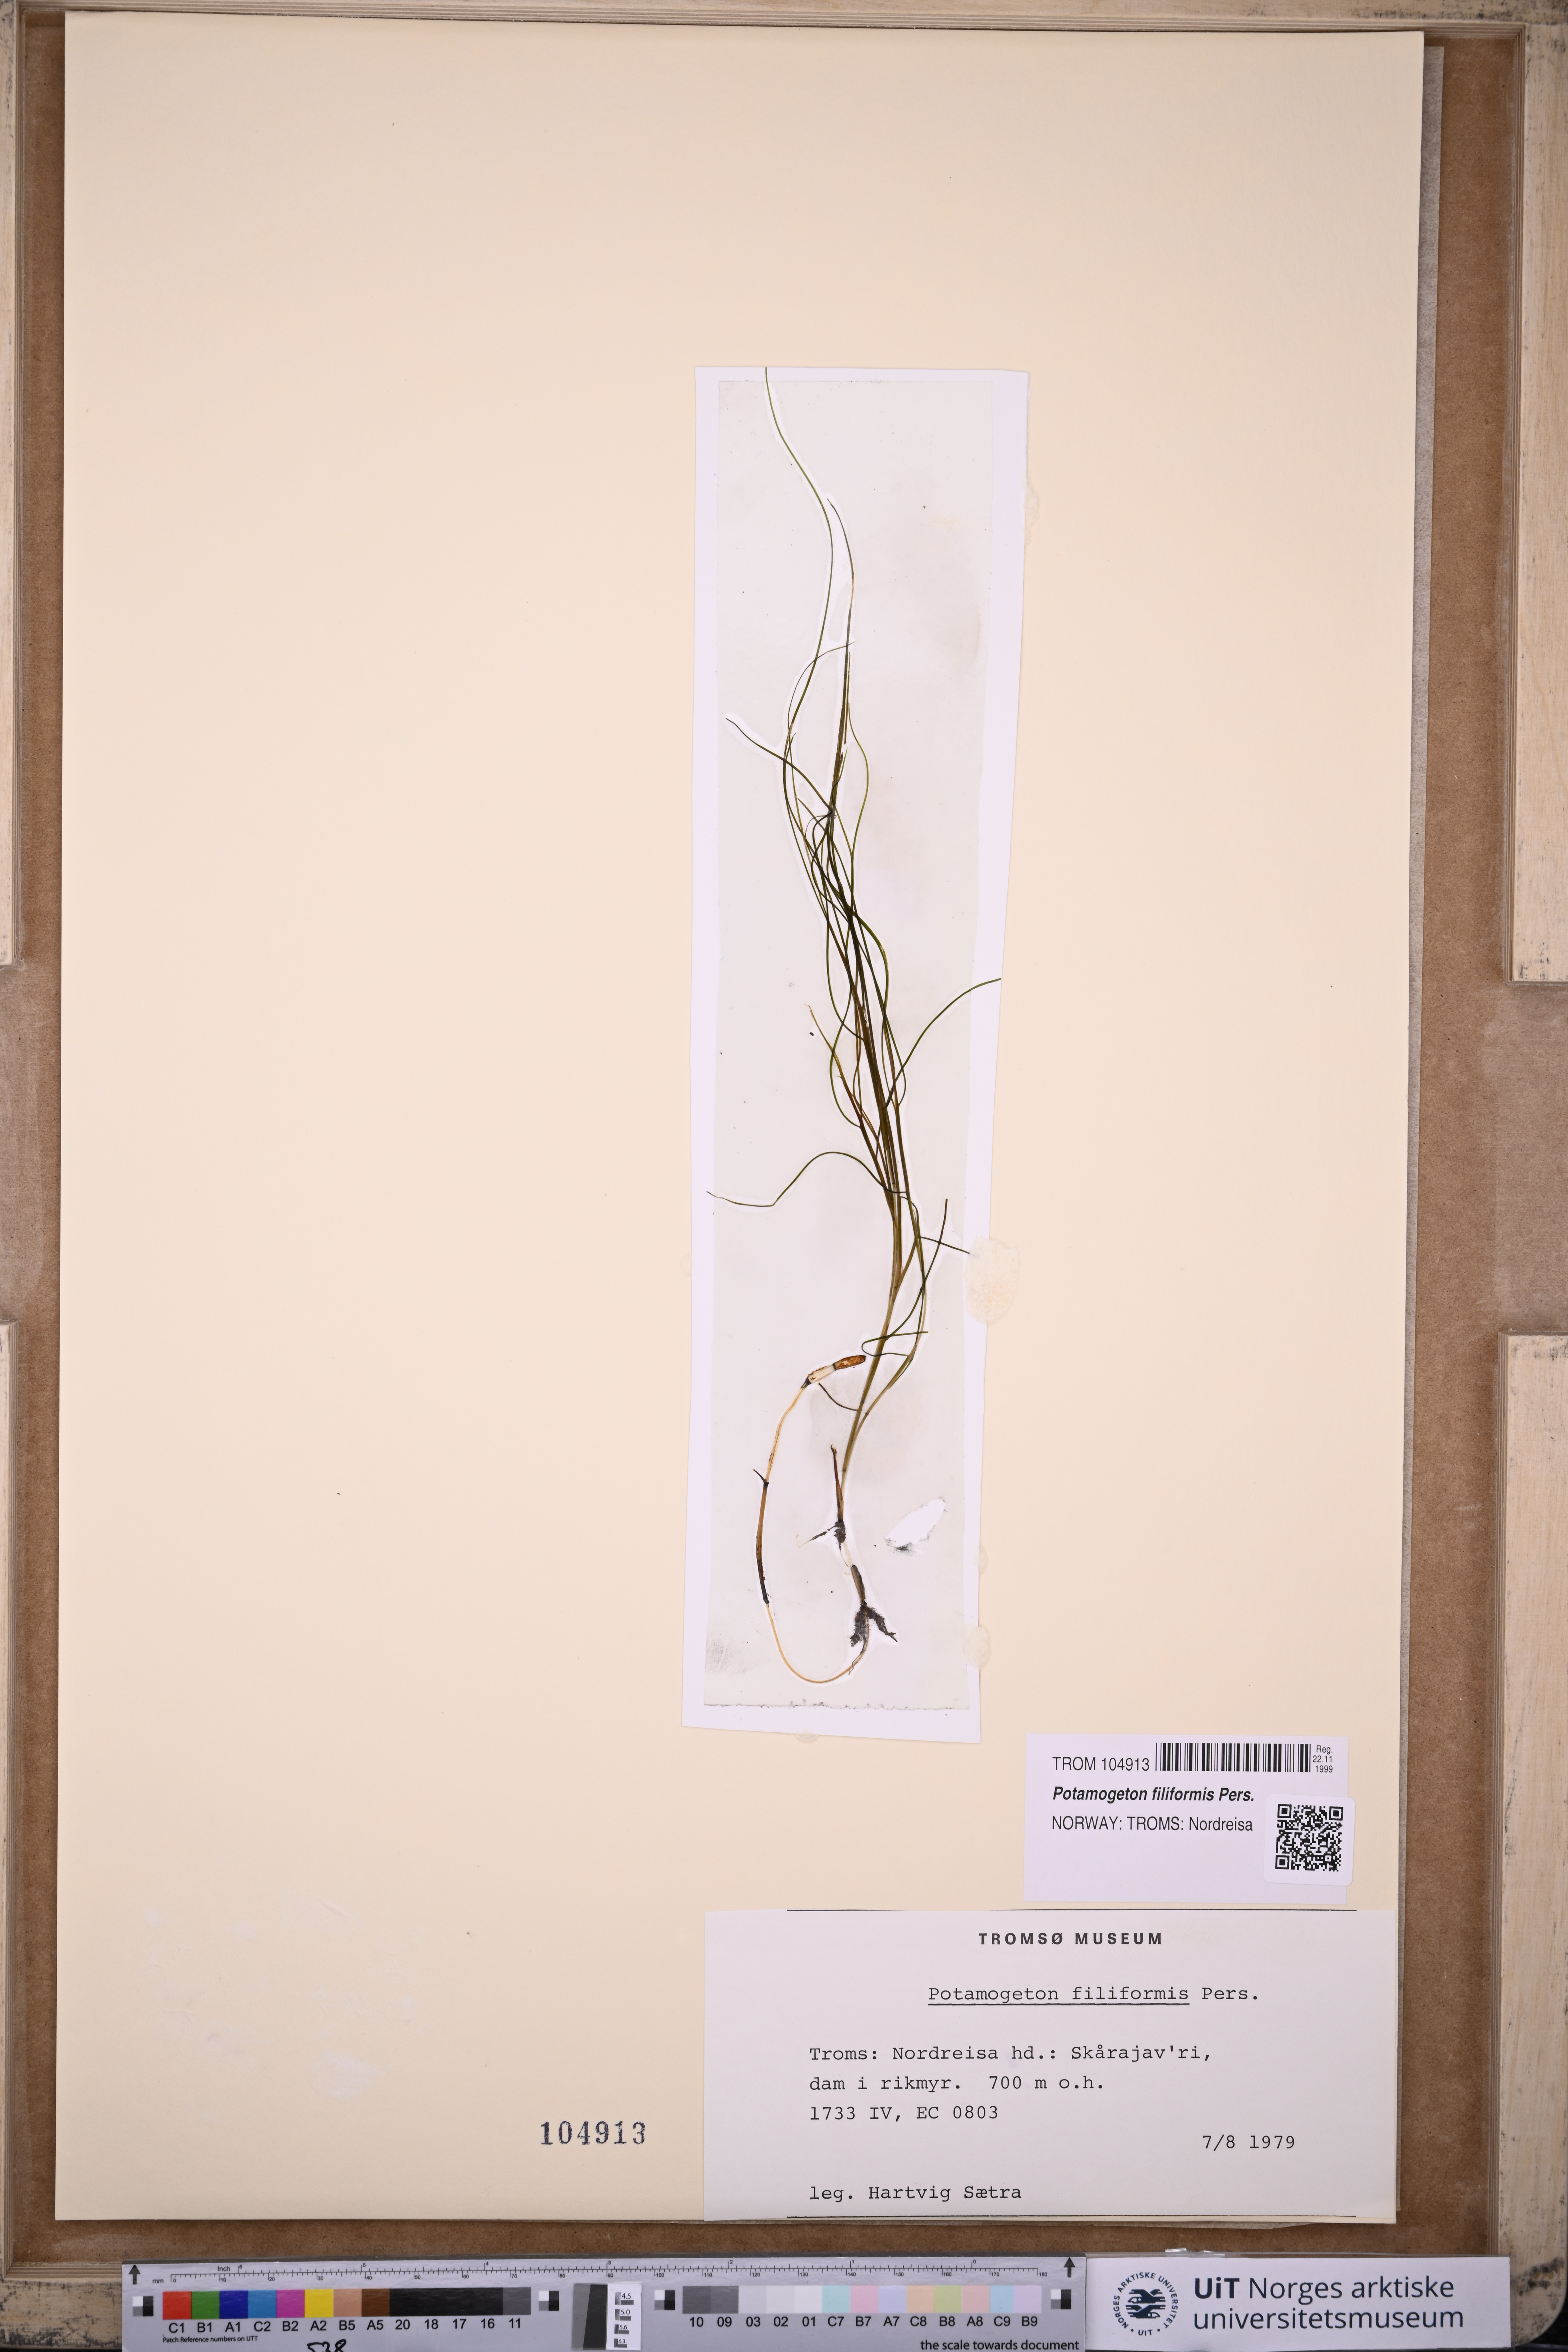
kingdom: Plantae
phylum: Tracheophyta
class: Liliopsida
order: Alismatales
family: Potamogetonaceae
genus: Stuckenia
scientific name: Stuckenia filiformis
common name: Alpine thread-leaved pondweed
